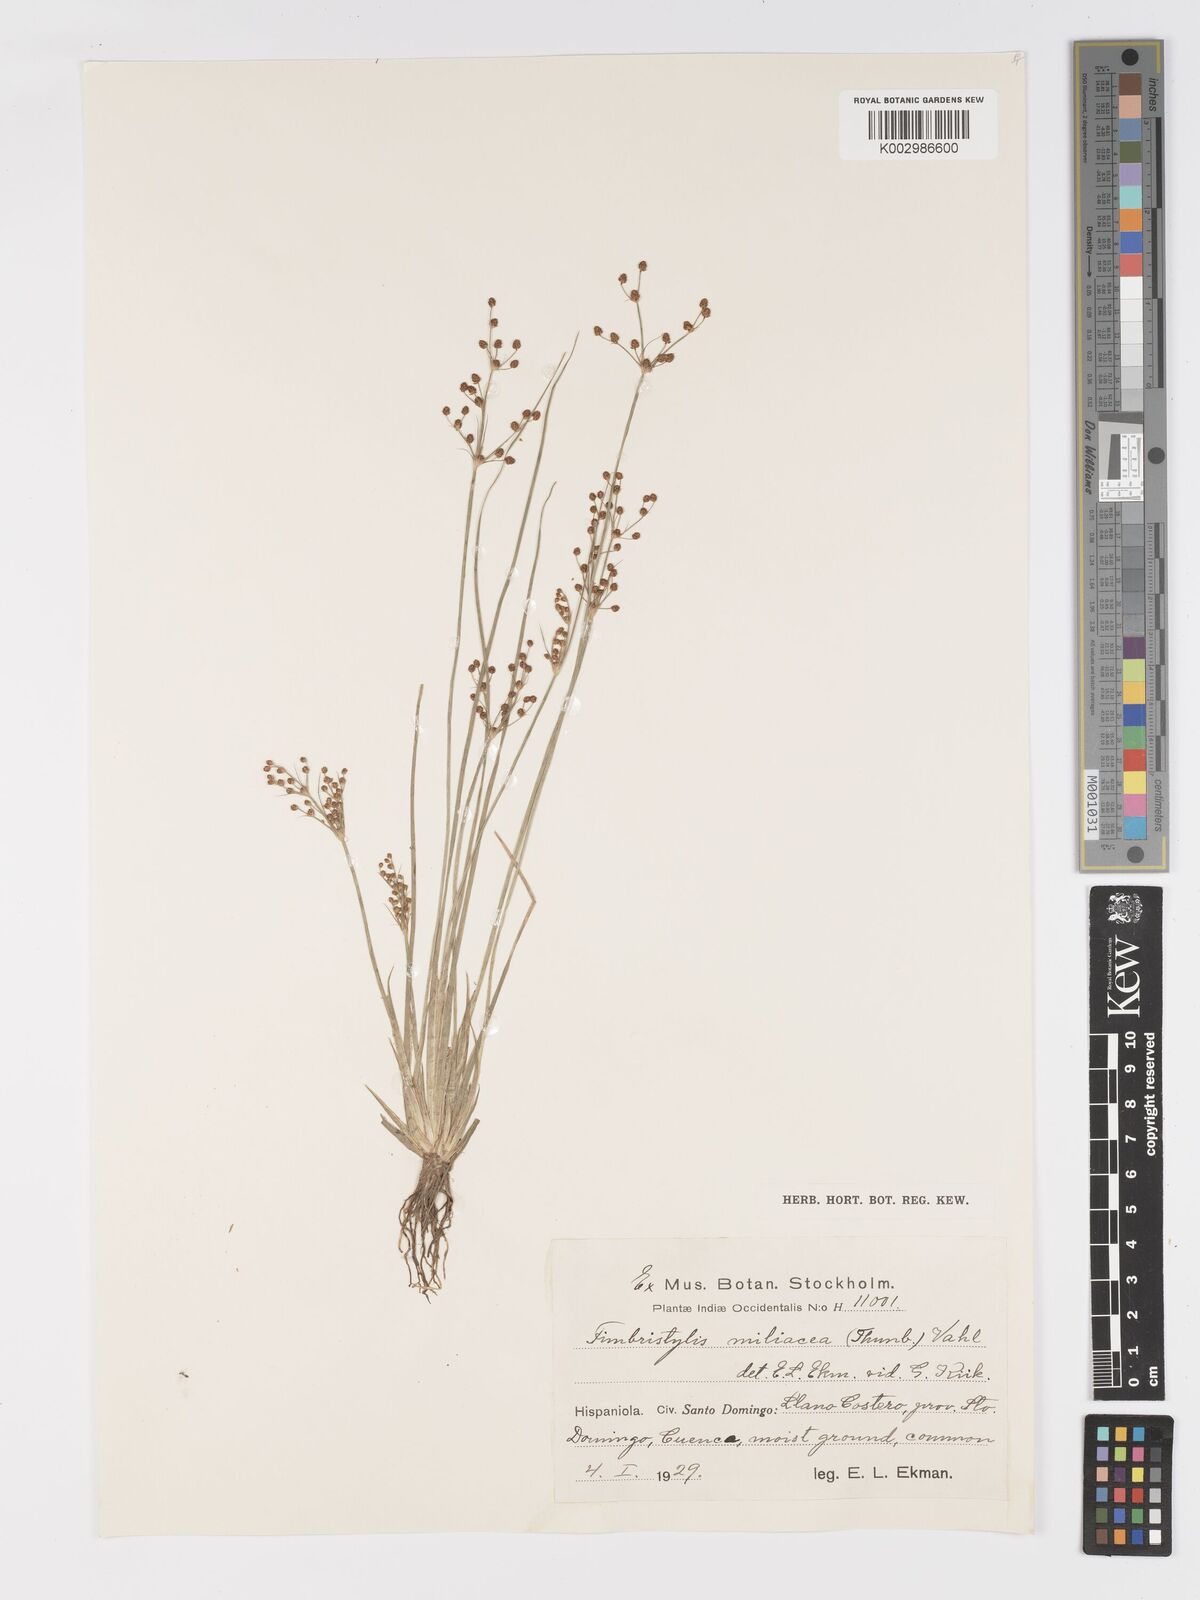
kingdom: Plantae
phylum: Tracheophyta
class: Liliopsida
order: Poales
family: Cyperaceae
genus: Fimbristylis
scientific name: Fimbristylis littoralis
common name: Fimbry
